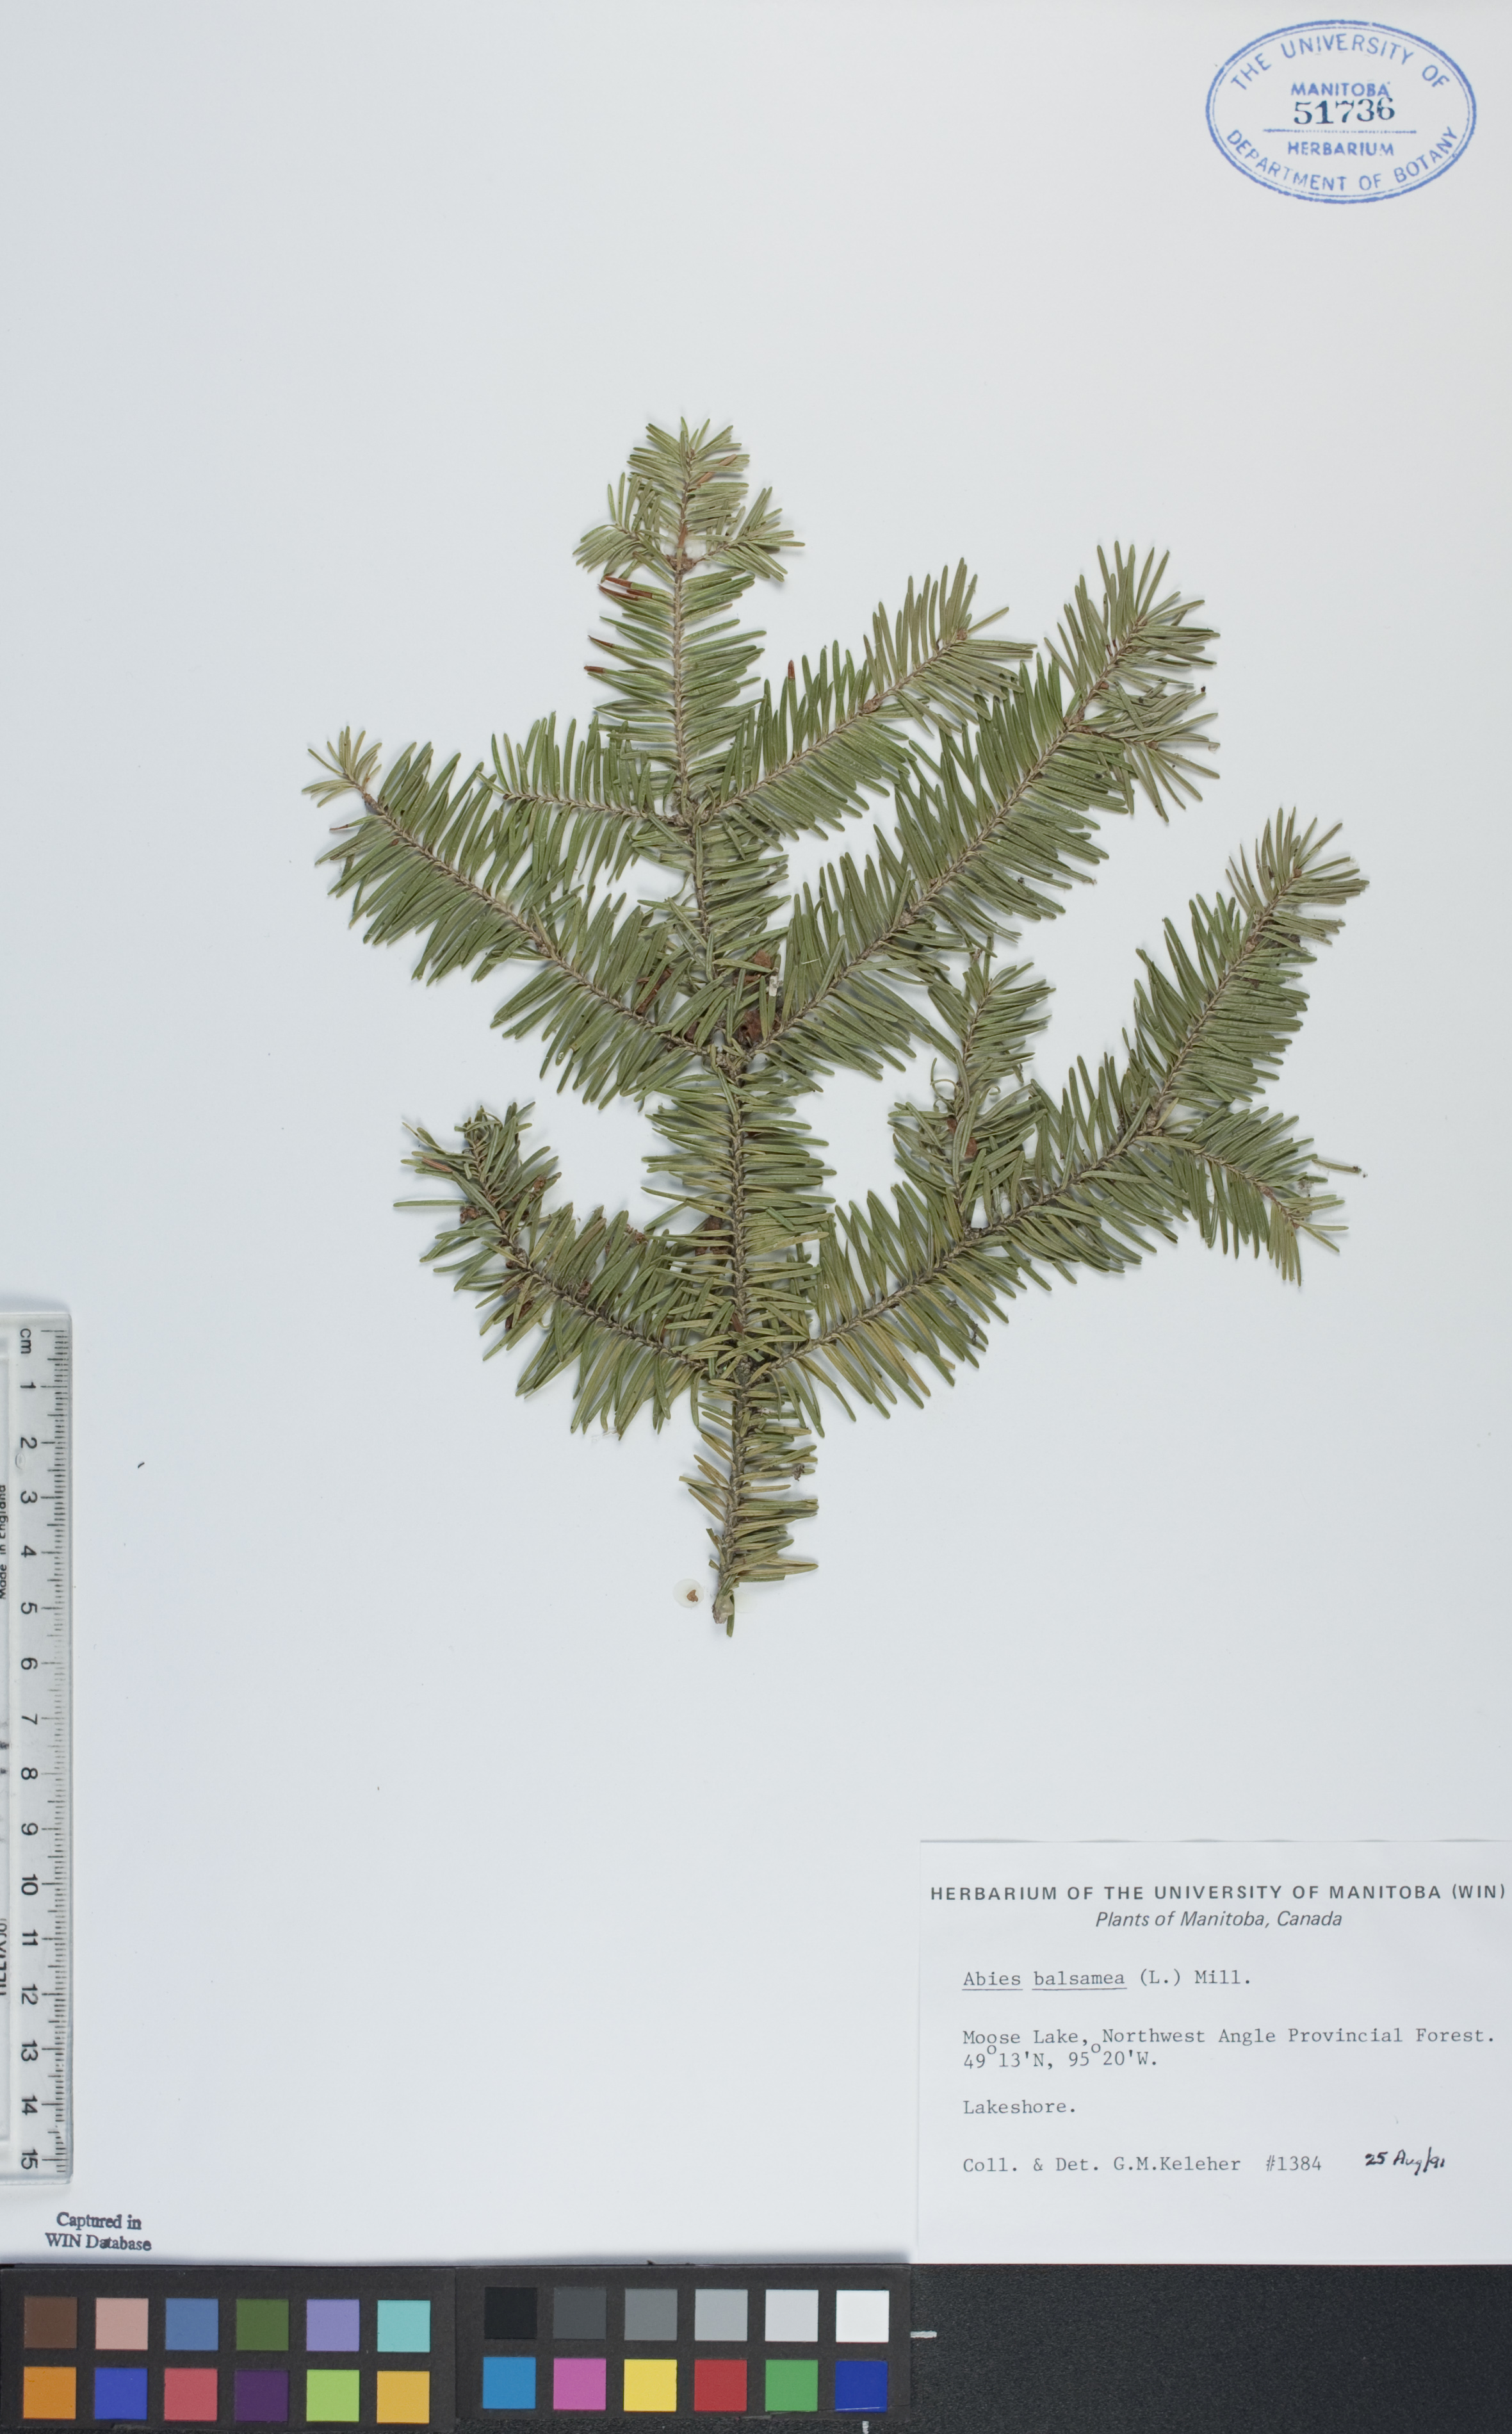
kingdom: Plantae
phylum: Tracheophyta
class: Pinopsida
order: Pinales
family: Pinaceae
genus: Abies
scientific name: Abies balsamea
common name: Balsam fir
